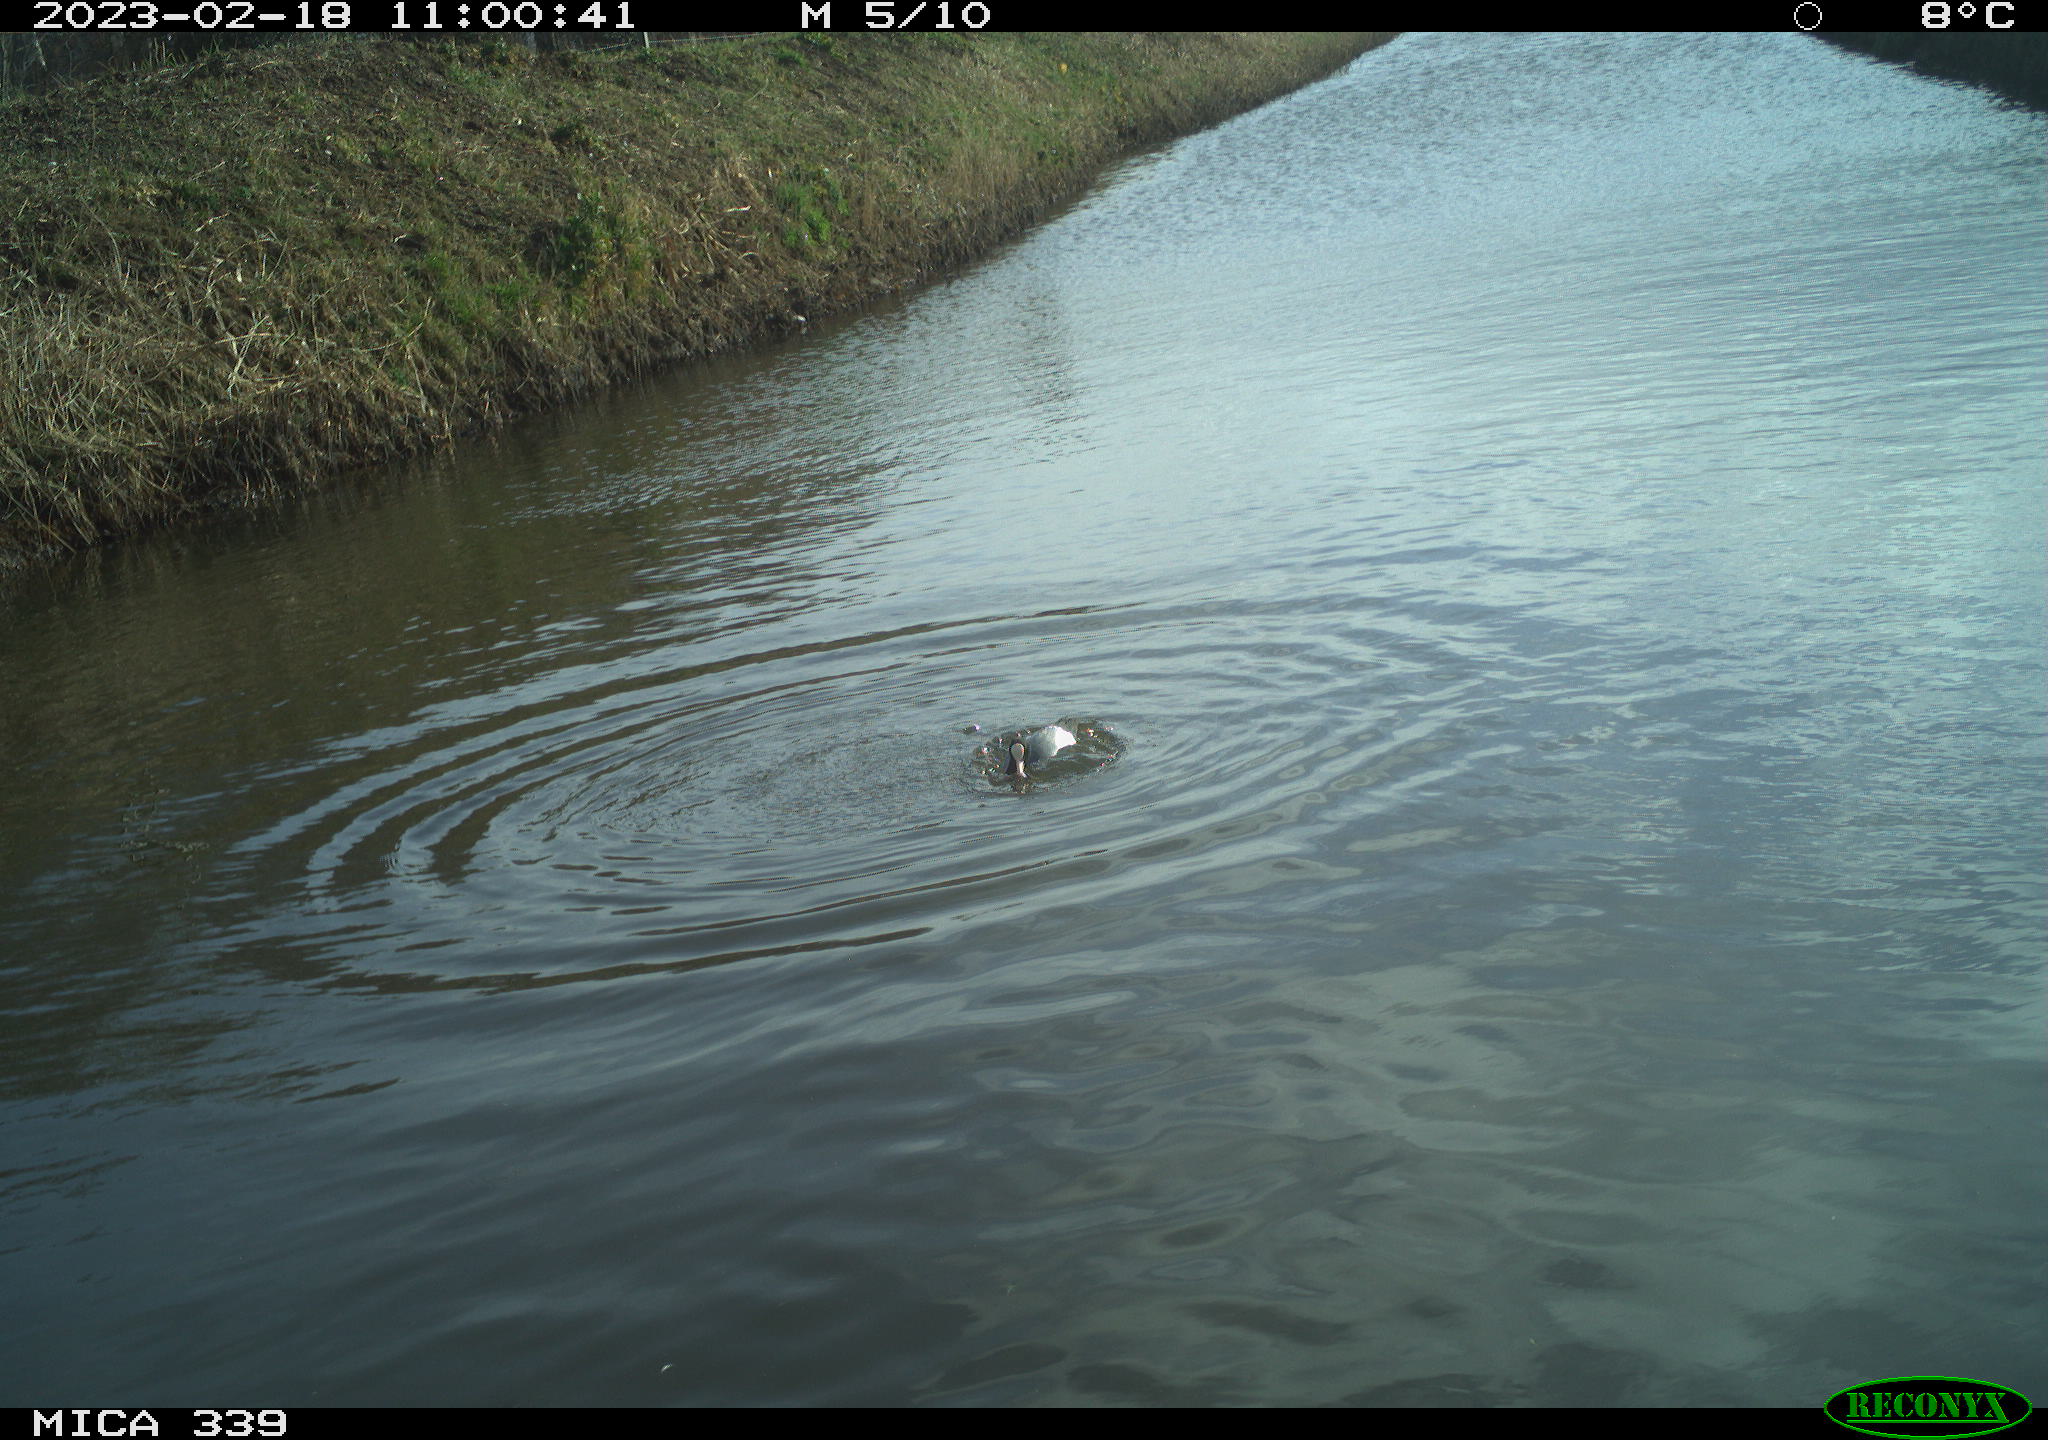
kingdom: Animalia
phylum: Chordata
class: Aves
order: Gruiformes
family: Rallidae
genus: Fulica
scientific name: Fulica atra
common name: Eurasian coot
